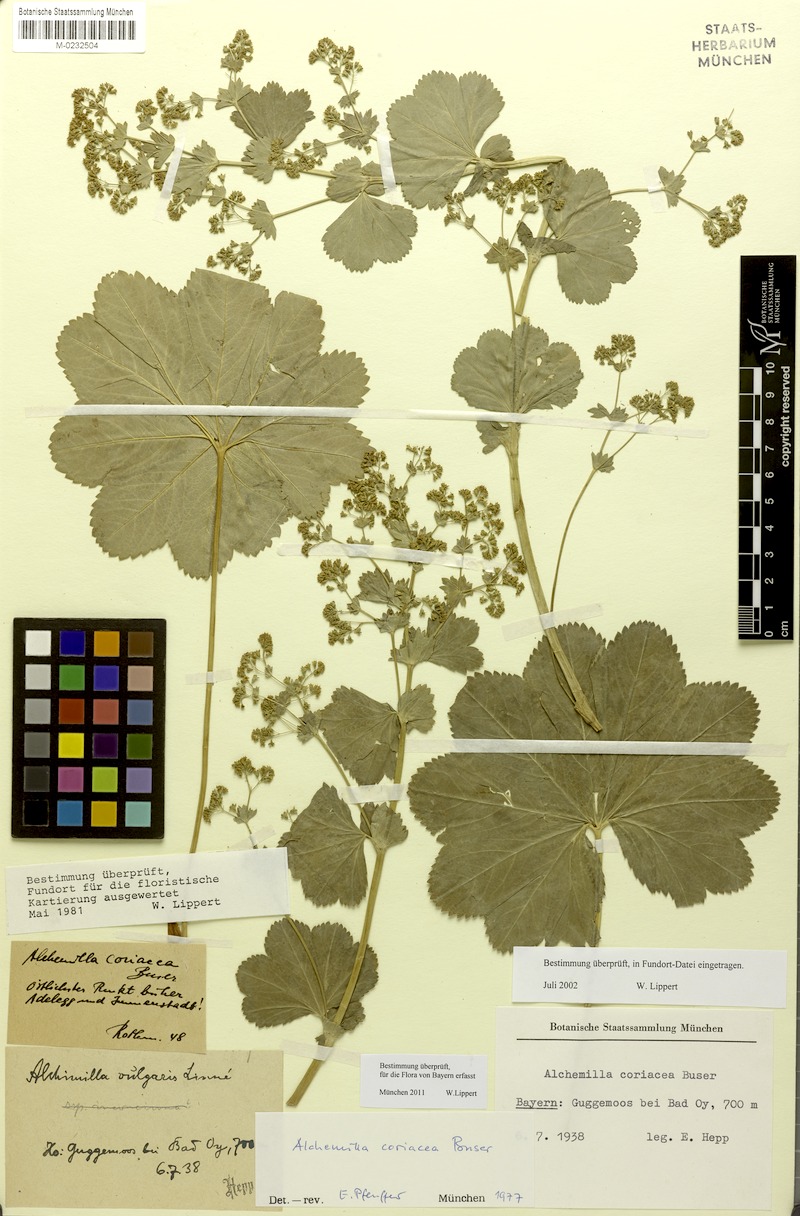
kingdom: Plantae
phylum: Tracheophyta
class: Magnoliopsida
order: Rosales
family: Rosaceae
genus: Alchemilla
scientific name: Alchemilla coriacea
